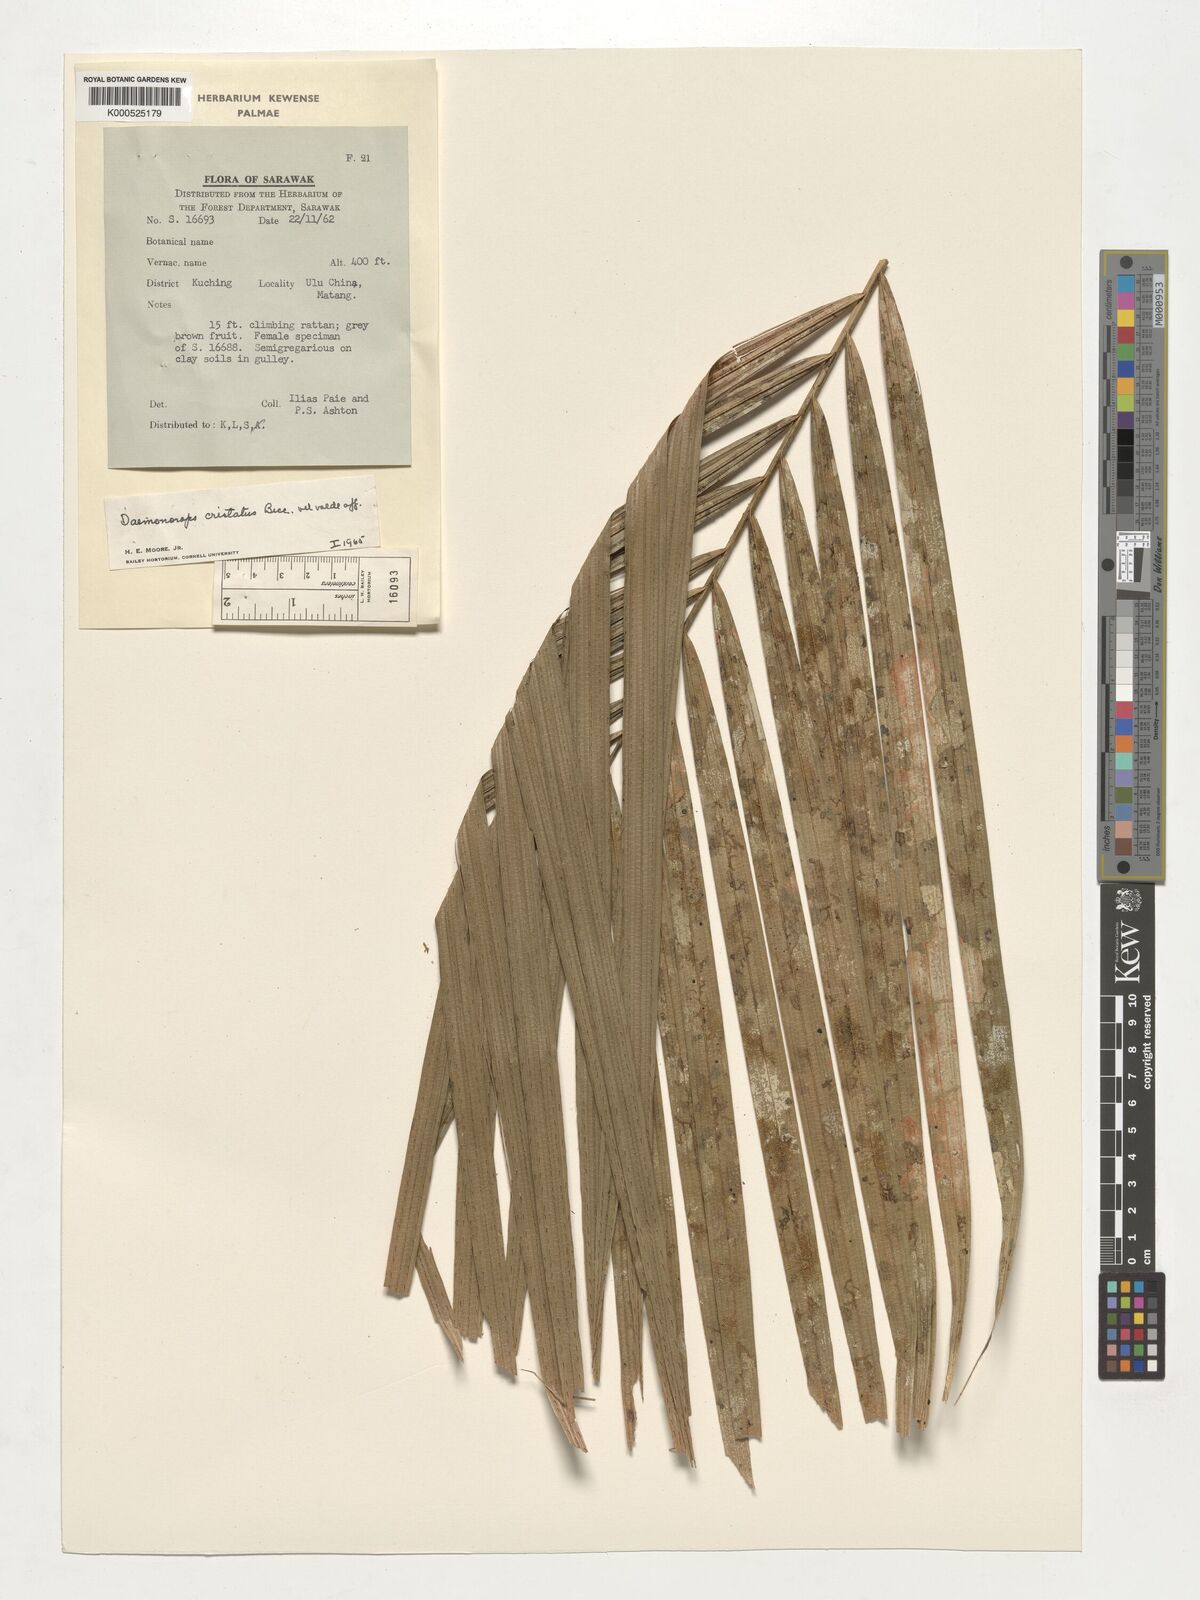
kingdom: Plantae
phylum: Tracheophyta
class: Liliopsida
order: Arecales
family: Arecaceae
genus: Calamus
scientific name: Calamus cristatus
